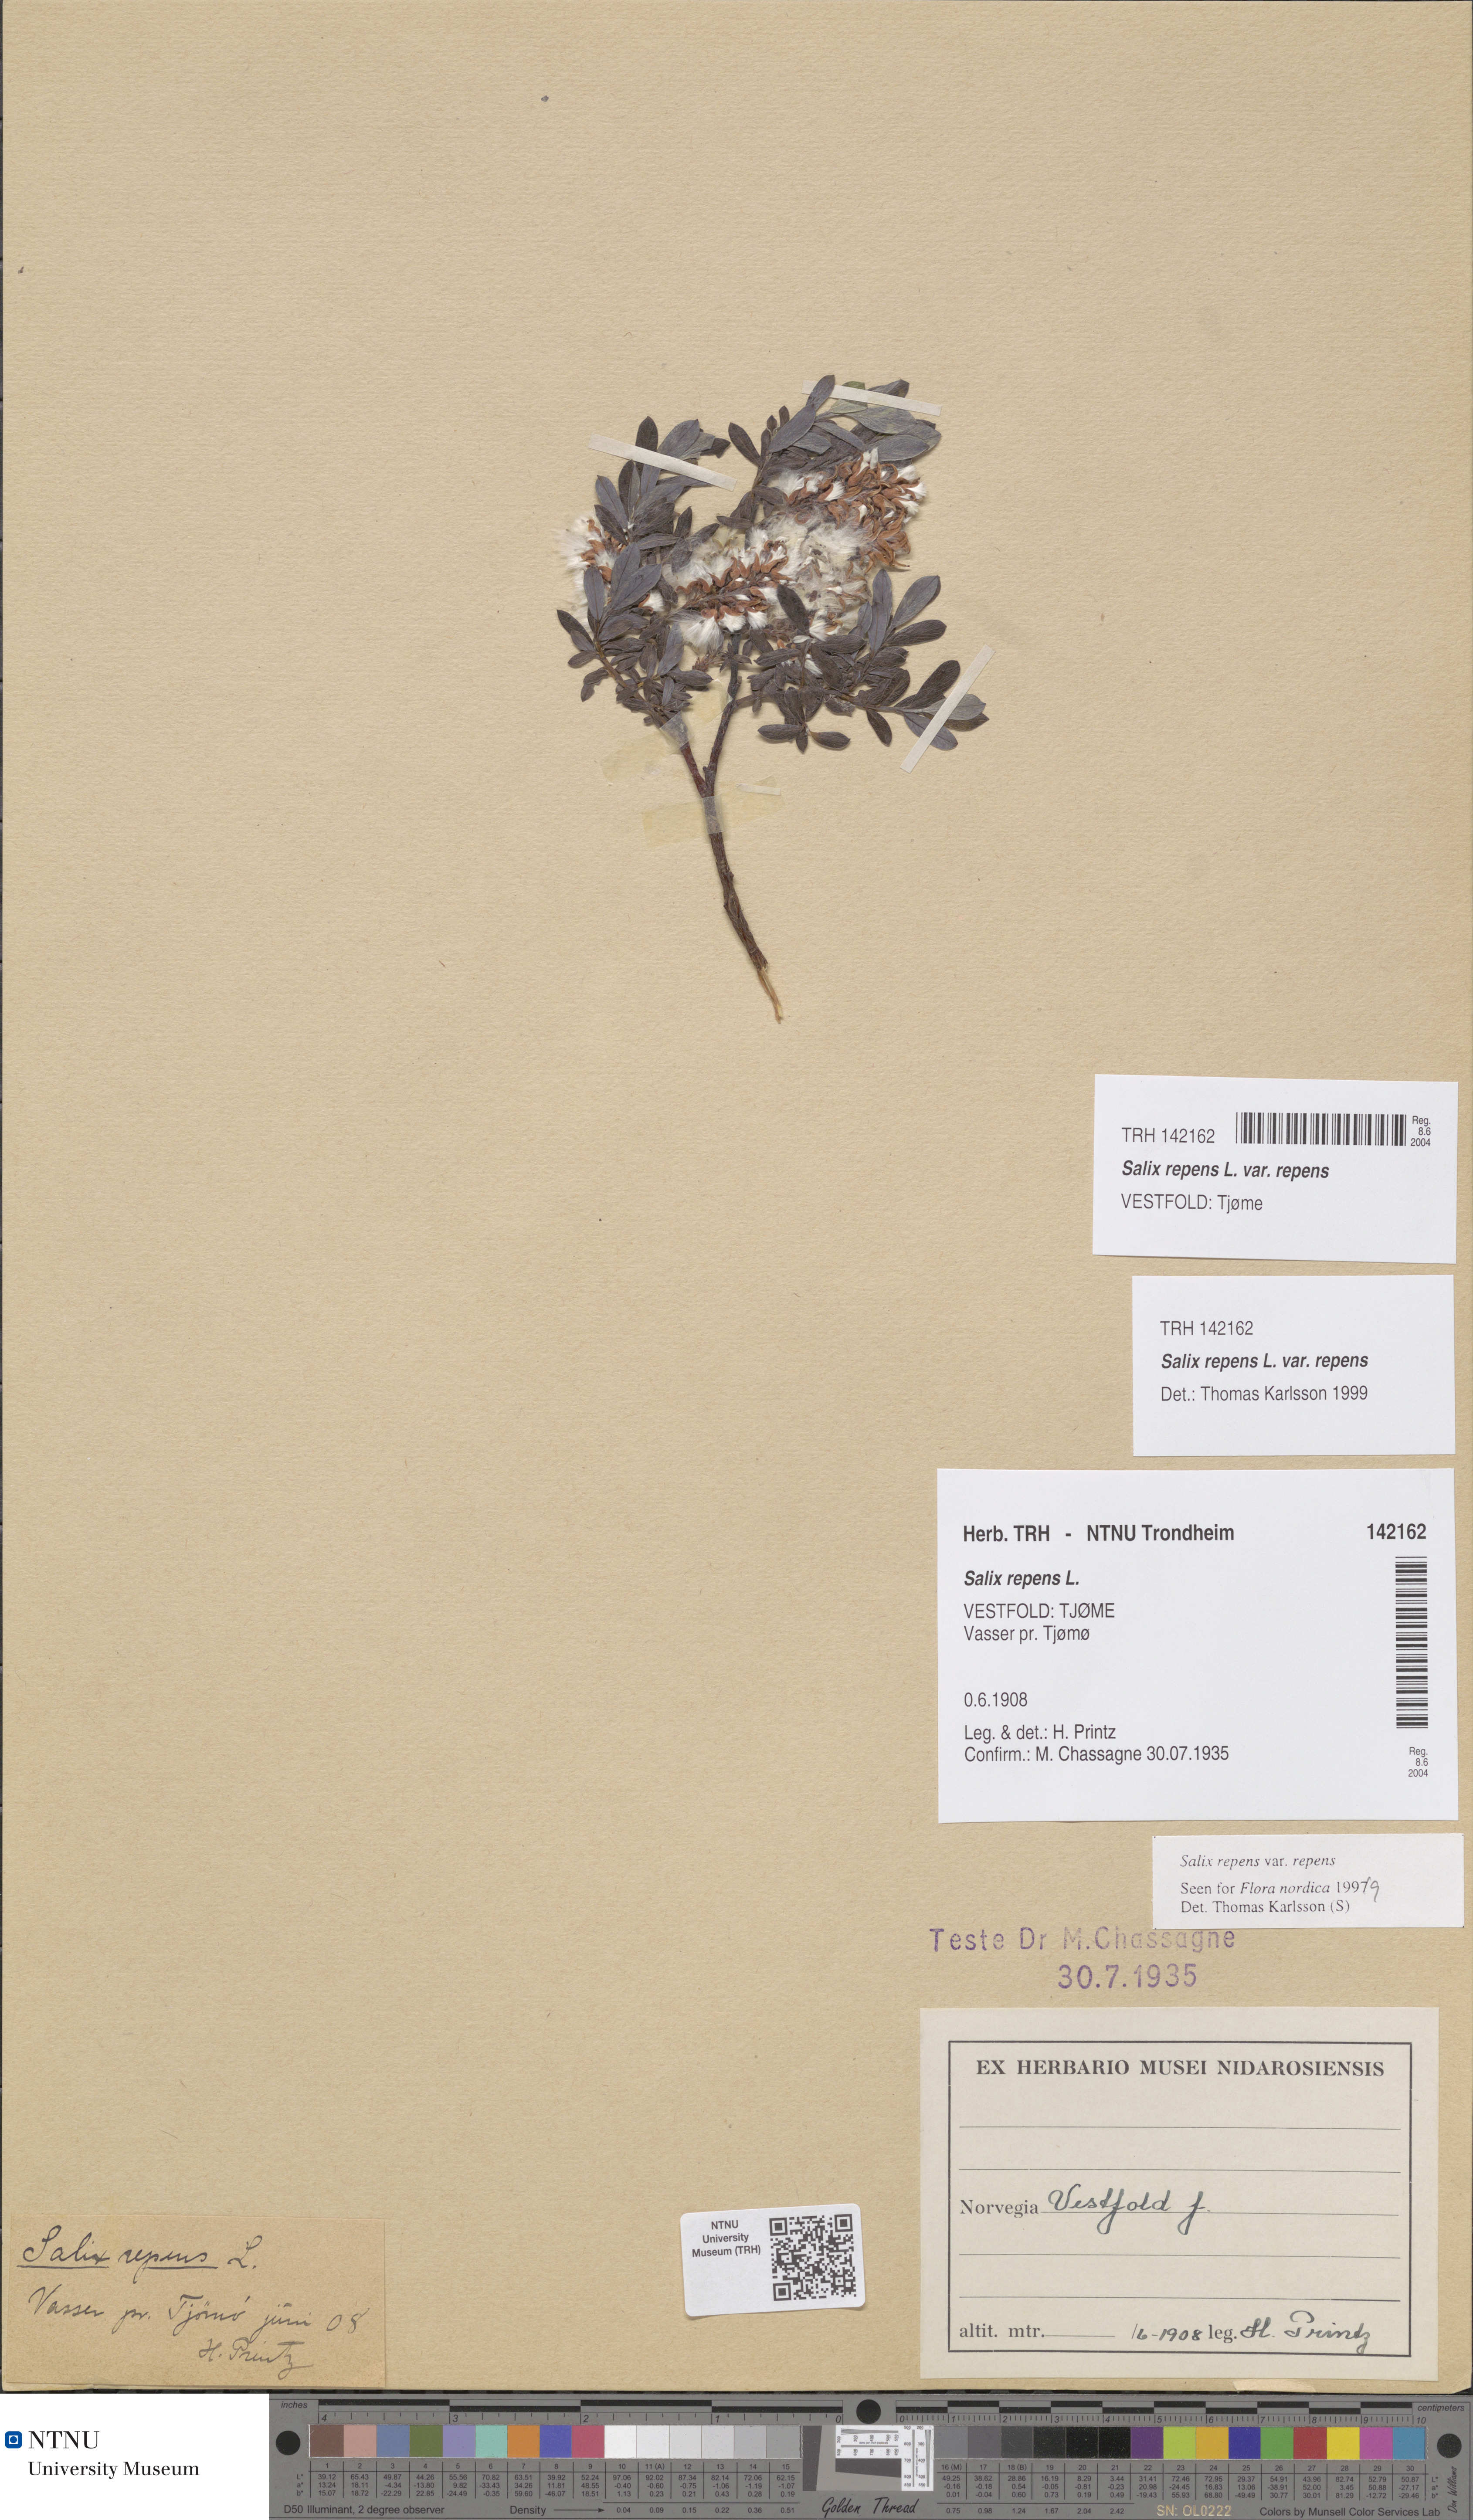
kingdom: Plantae
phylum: Tracheophyta
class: Magnoliopsida
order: Malpighiales
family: Salicaceae
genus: Salix
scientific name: Salix repens
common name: Creeping willow
